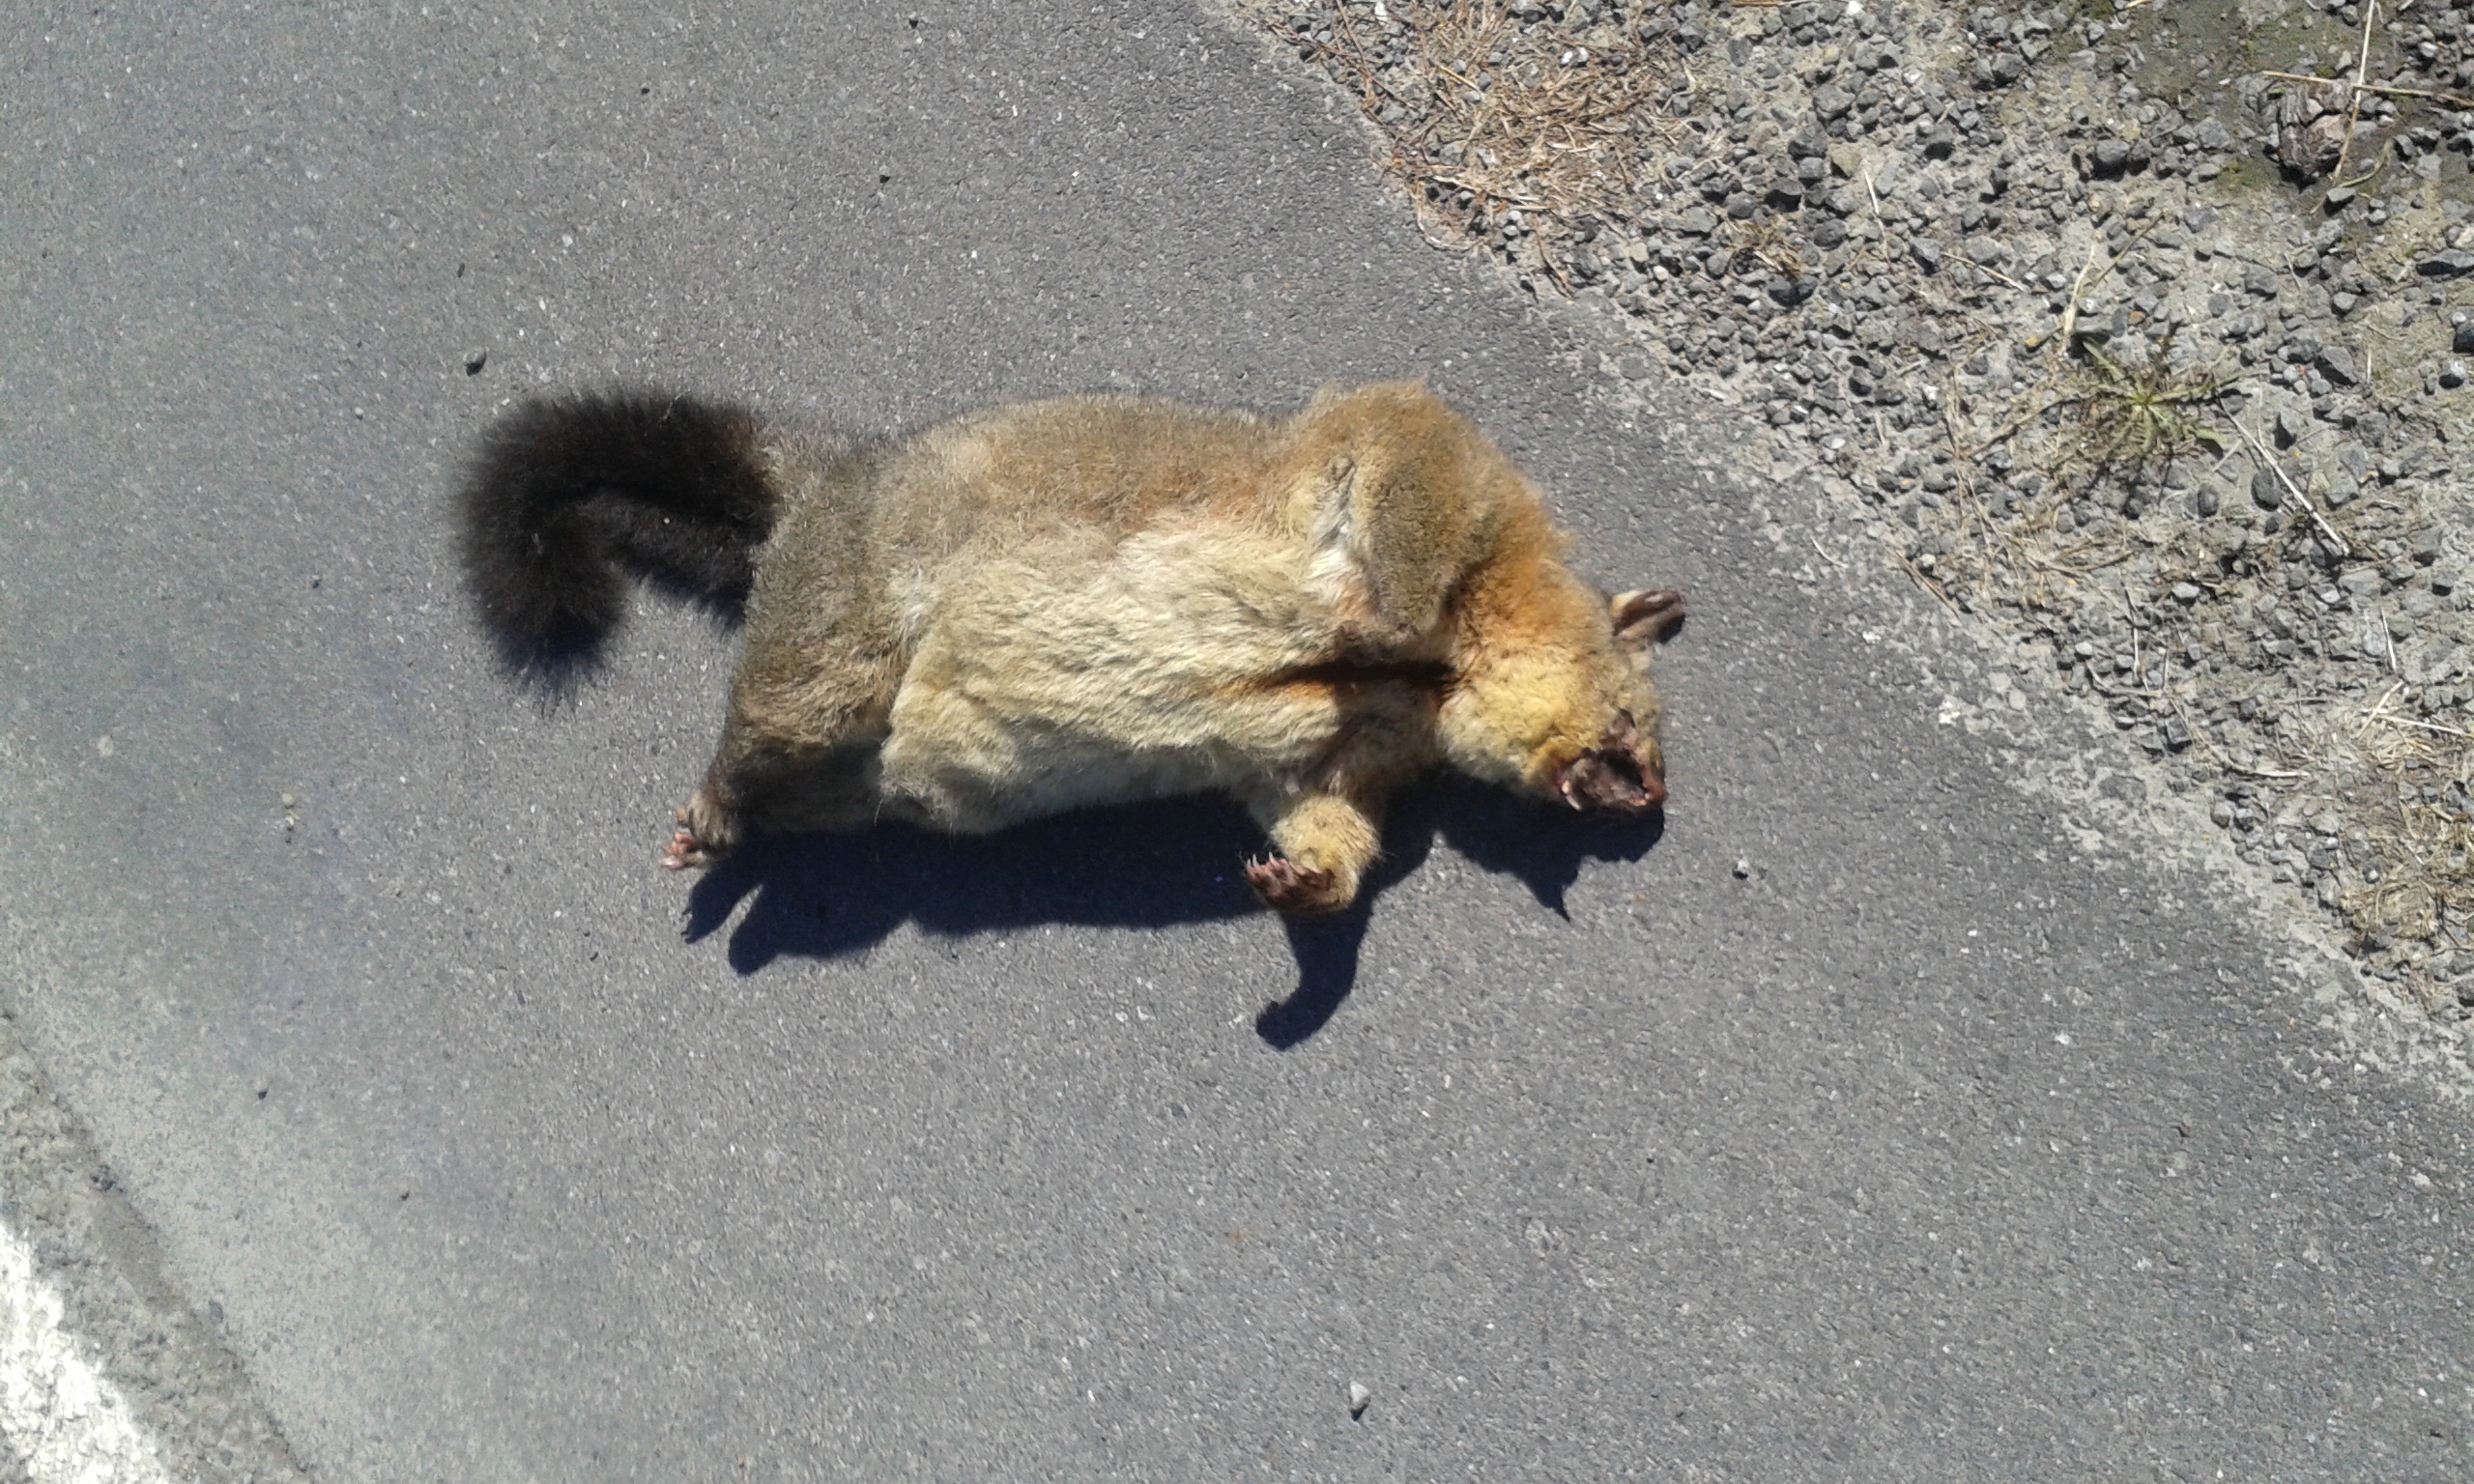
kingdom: Animalia
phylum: Chordata
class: Mammalia
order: Diprotodontia
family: Phalangeridae
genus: Trichosurus
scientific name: Trichosurus vulpecula
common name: Common brushtail
